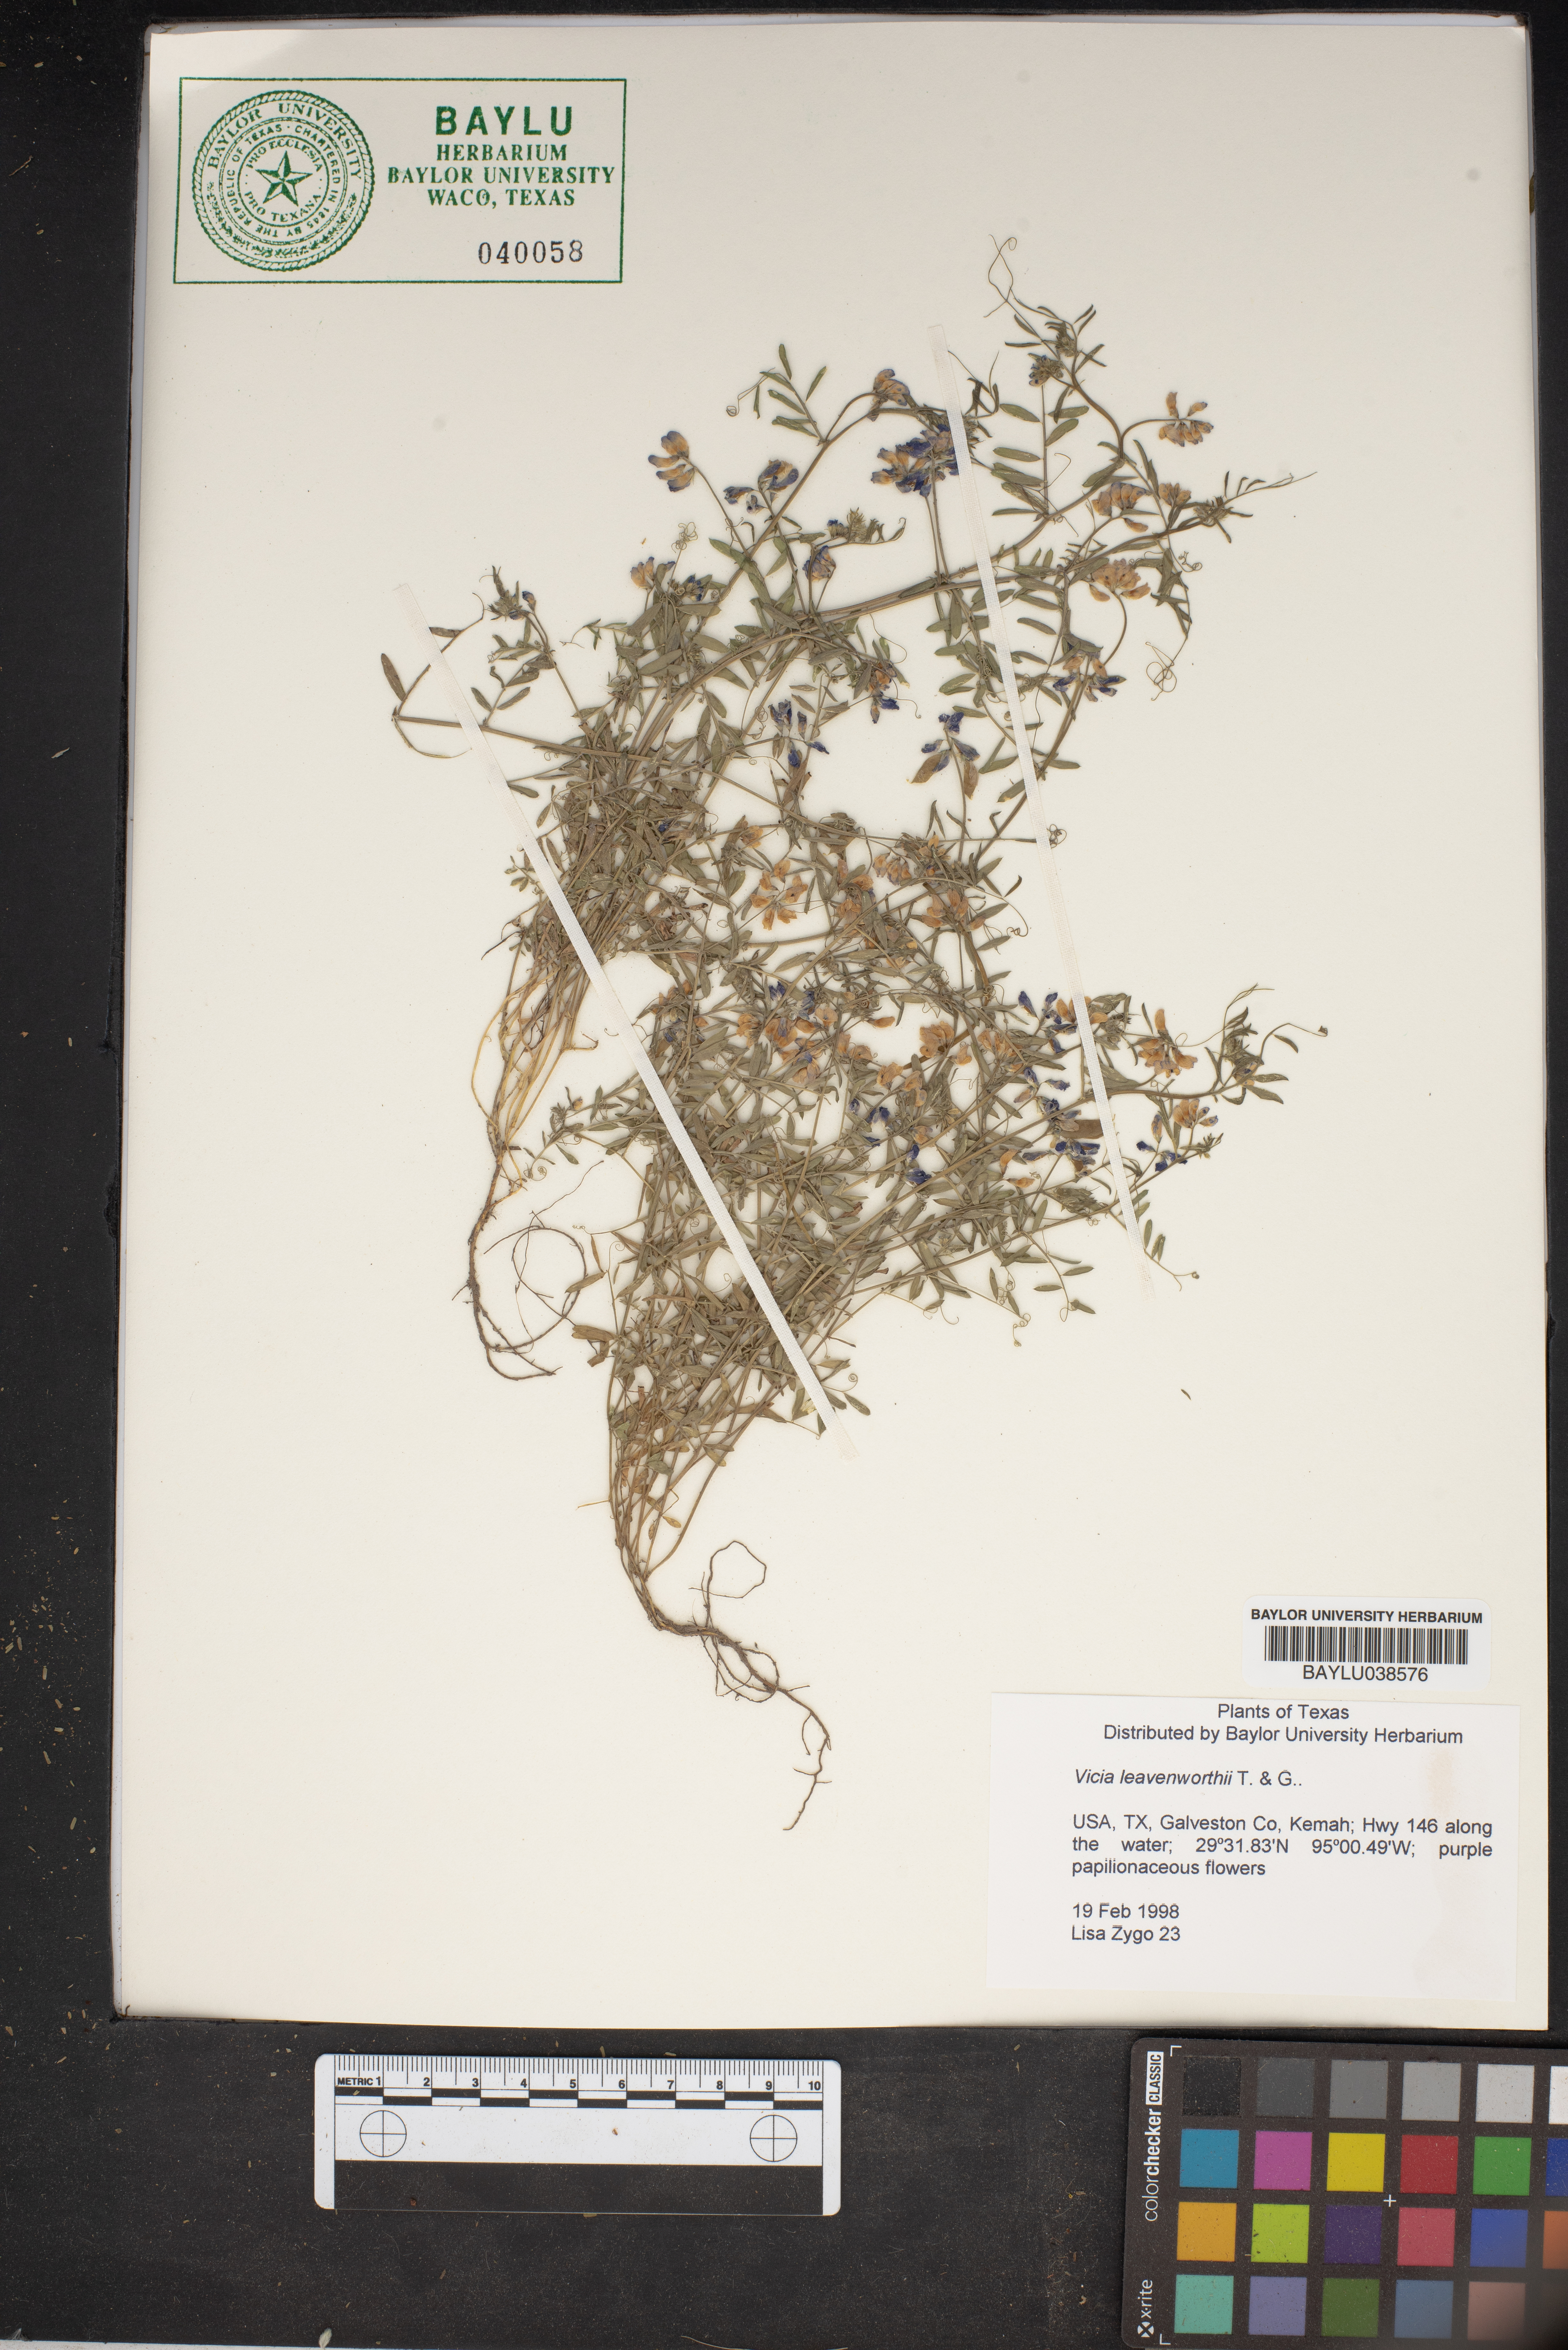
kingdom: Plantae
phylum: Tracheophyta
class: Magnoliopsida
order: Fabales
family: Fabaceae
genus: Vicia
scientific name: Vicia ludoviciana
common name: Louisiana vetch
